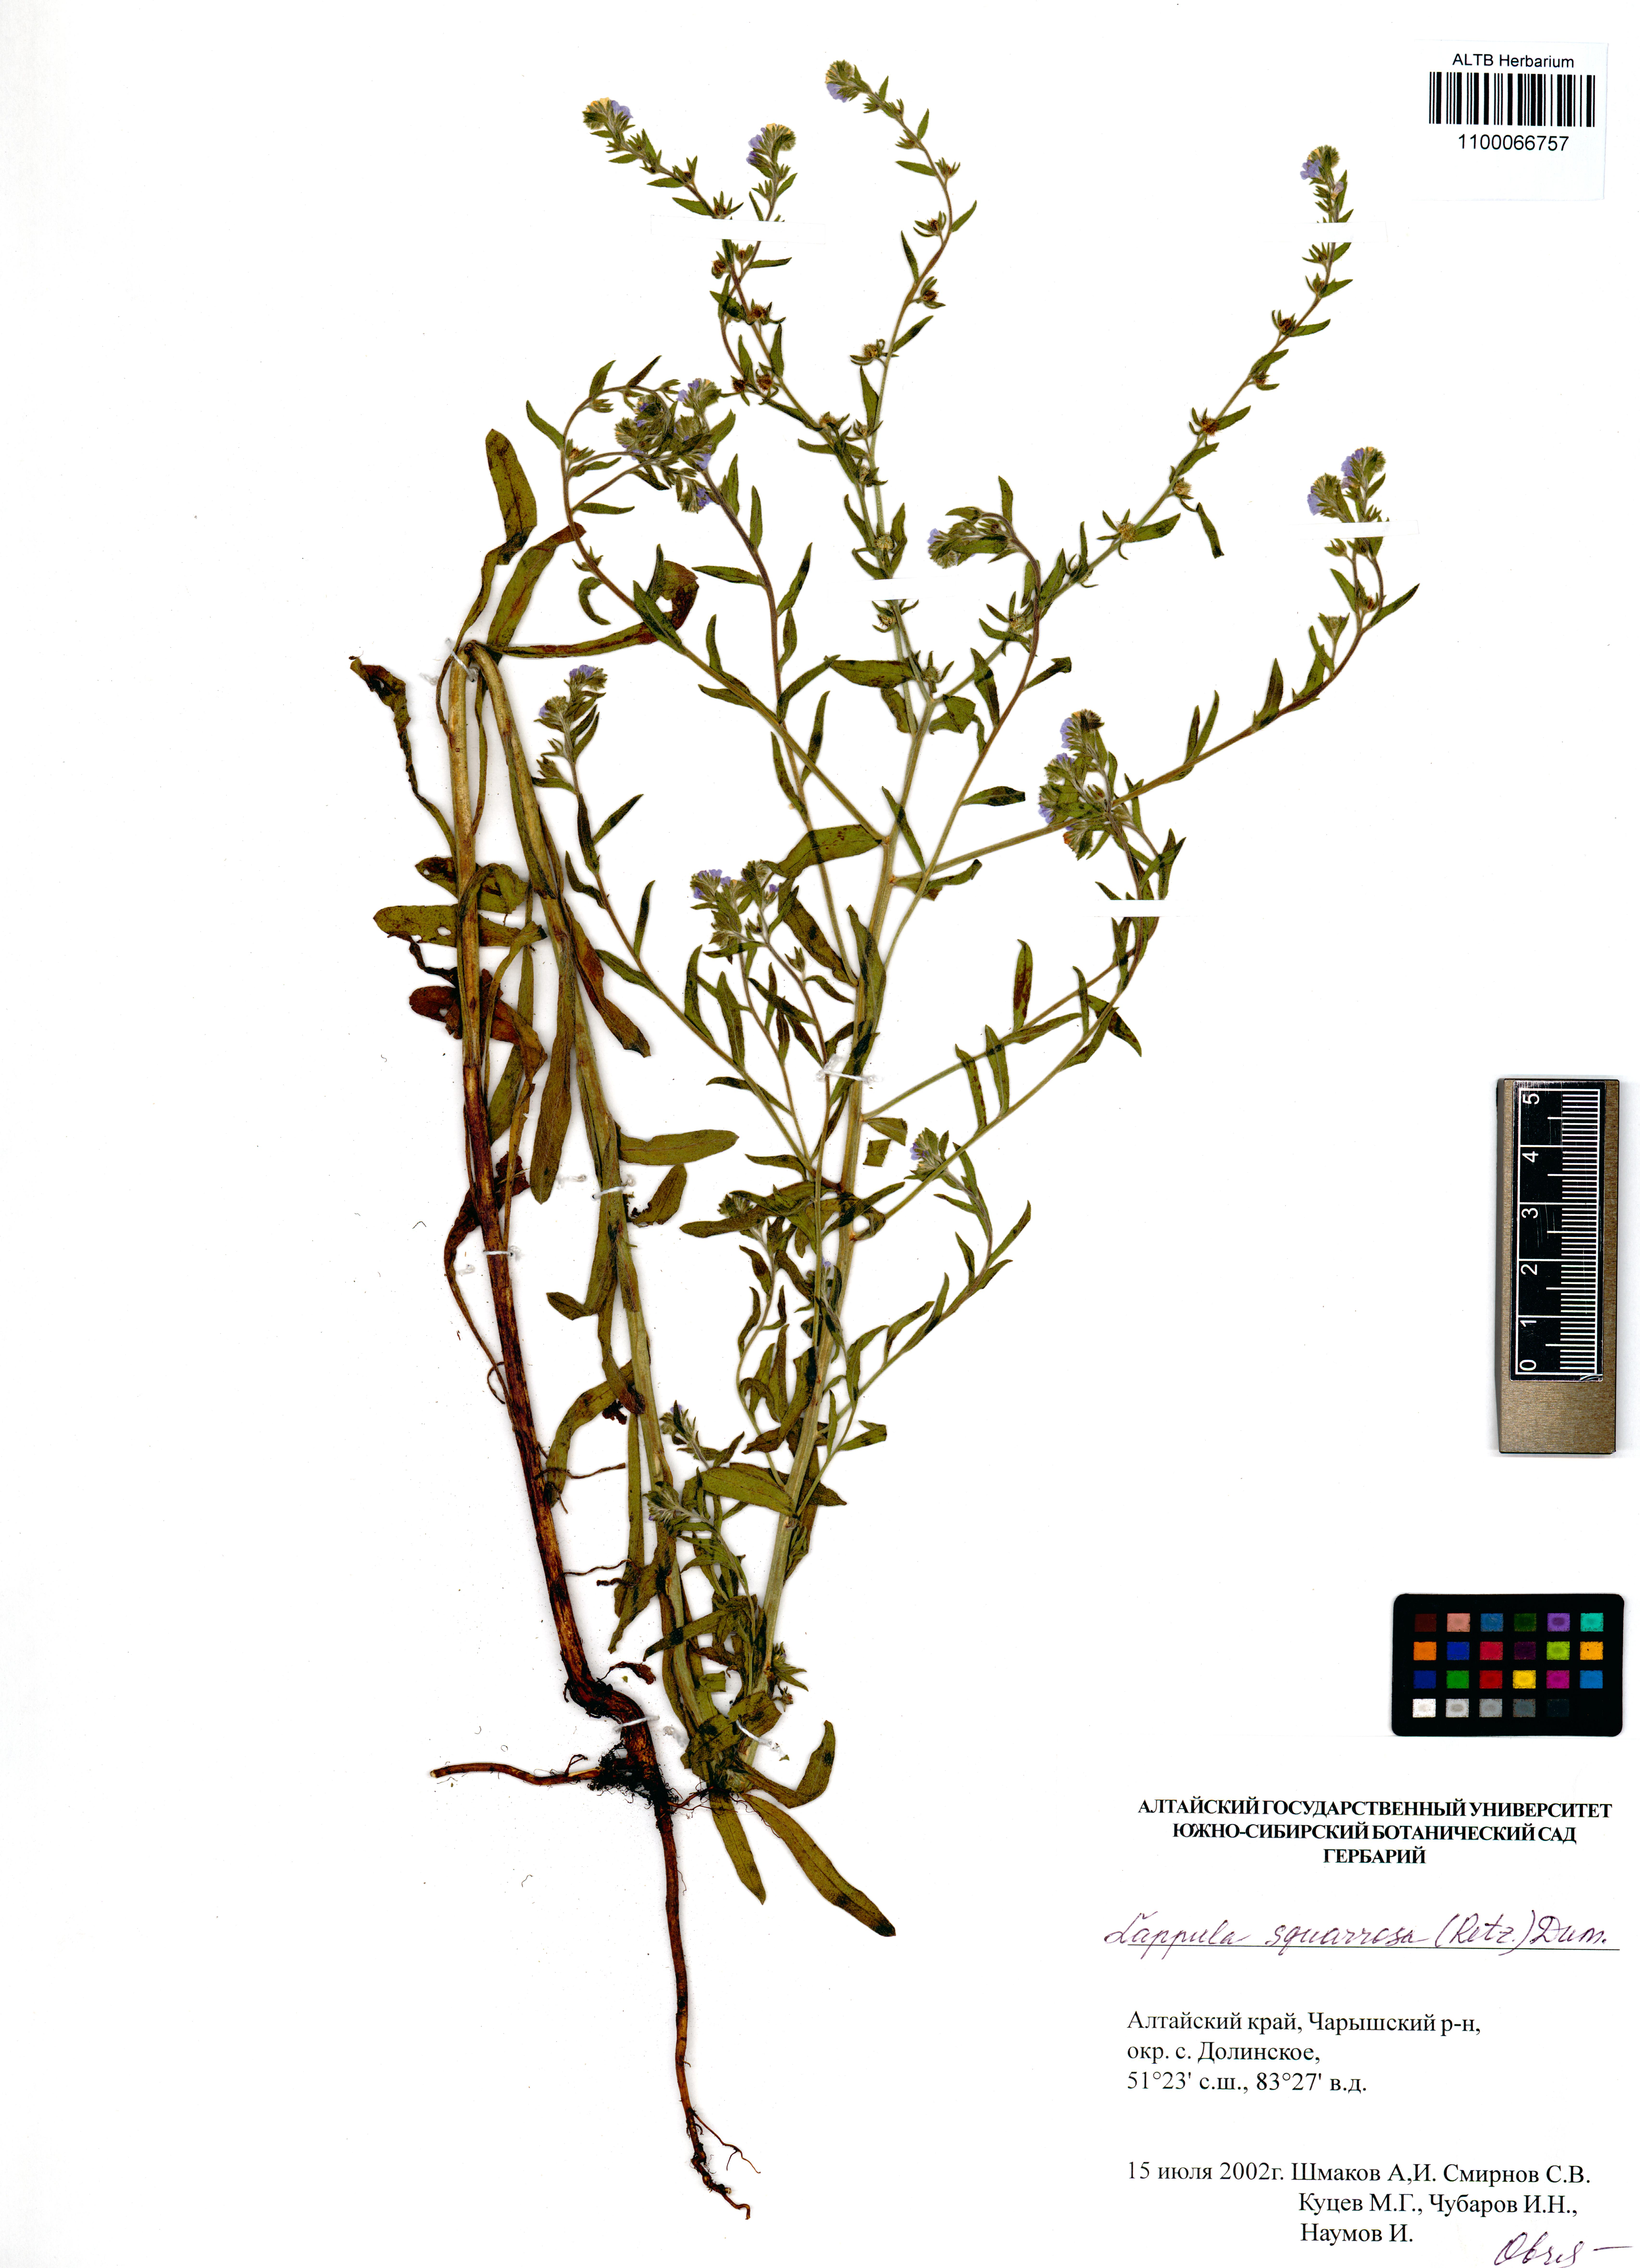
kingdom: Plantae
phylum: Tracheophyta
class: Magnoliopsida
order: Boraginales
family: Boraginaceae
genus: Lappula
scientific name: Lappula squarrosa
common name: European stickseed
